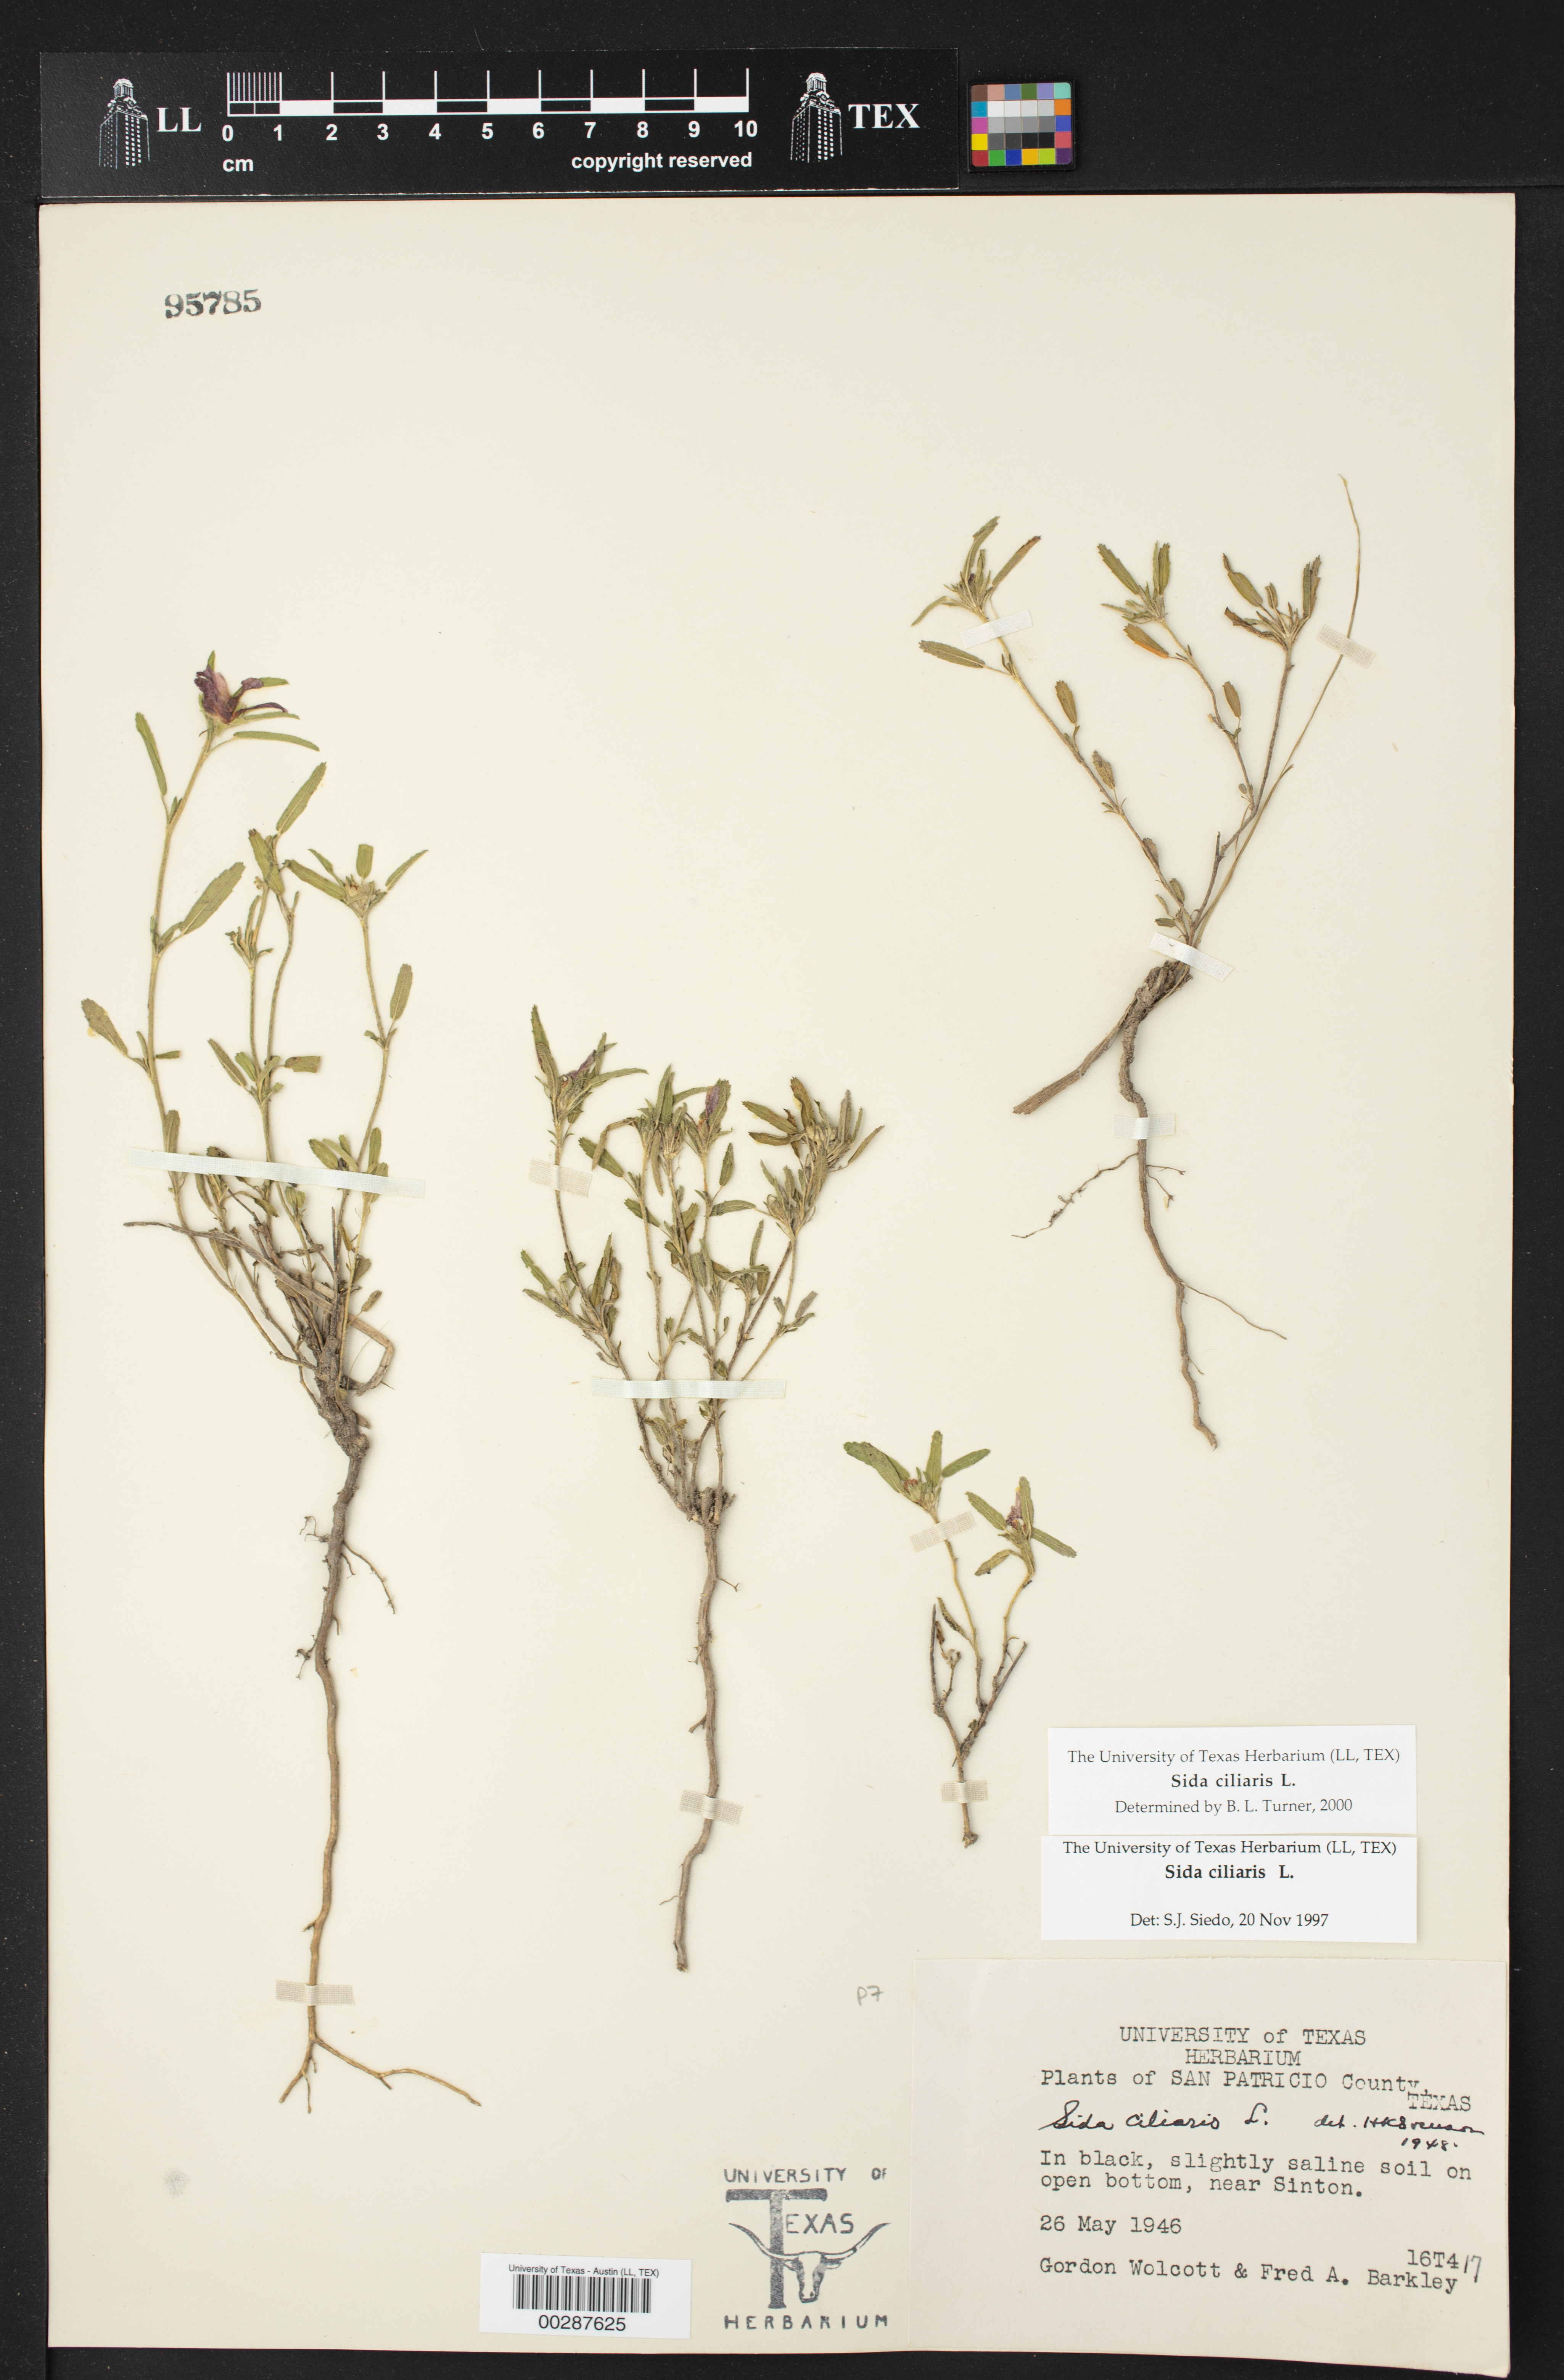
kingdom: Plantae
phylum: Tracheophyta
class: Magnoliopsida
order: Malvales
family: Malvaceae
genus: Sida
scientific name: Sida ciliaris
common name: Bracted fanpetals
